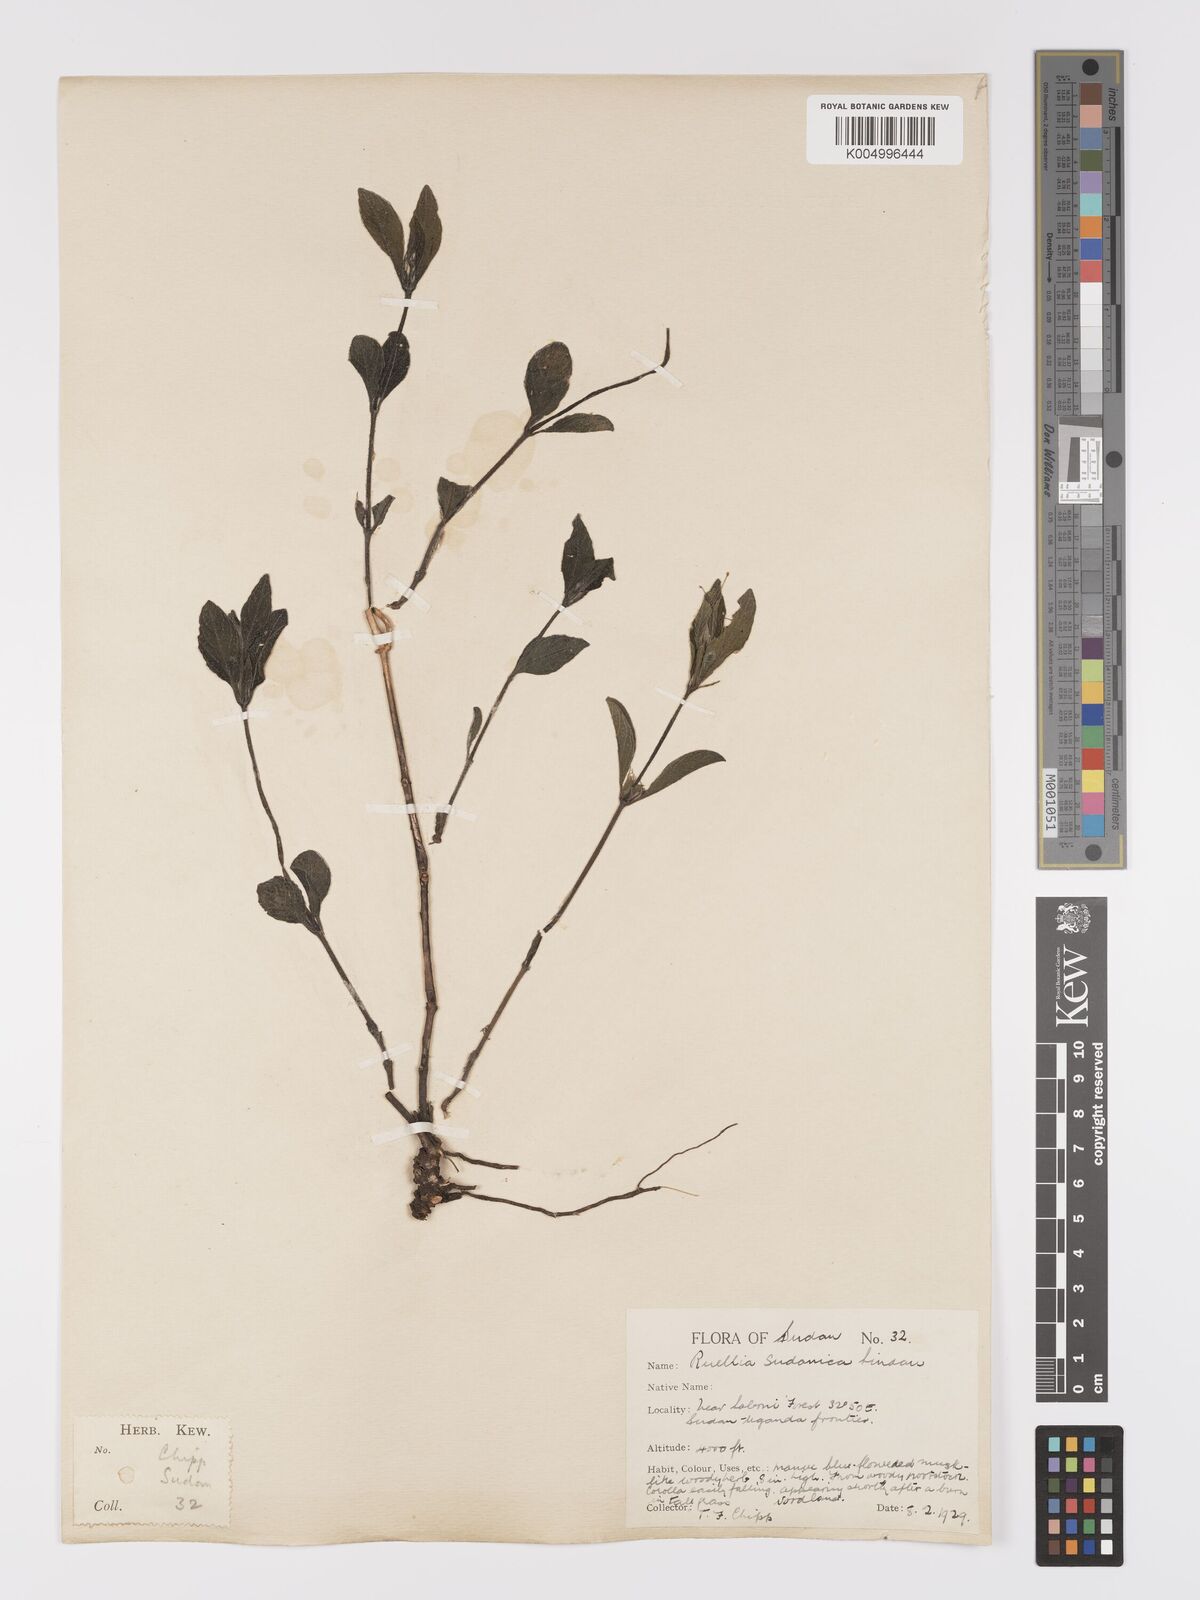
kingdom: Plantae
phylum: Tracheophyta
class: Magnoliopsida
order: Lamiales
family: Acanthaceae
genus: Ruellia
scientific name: Ruellia
